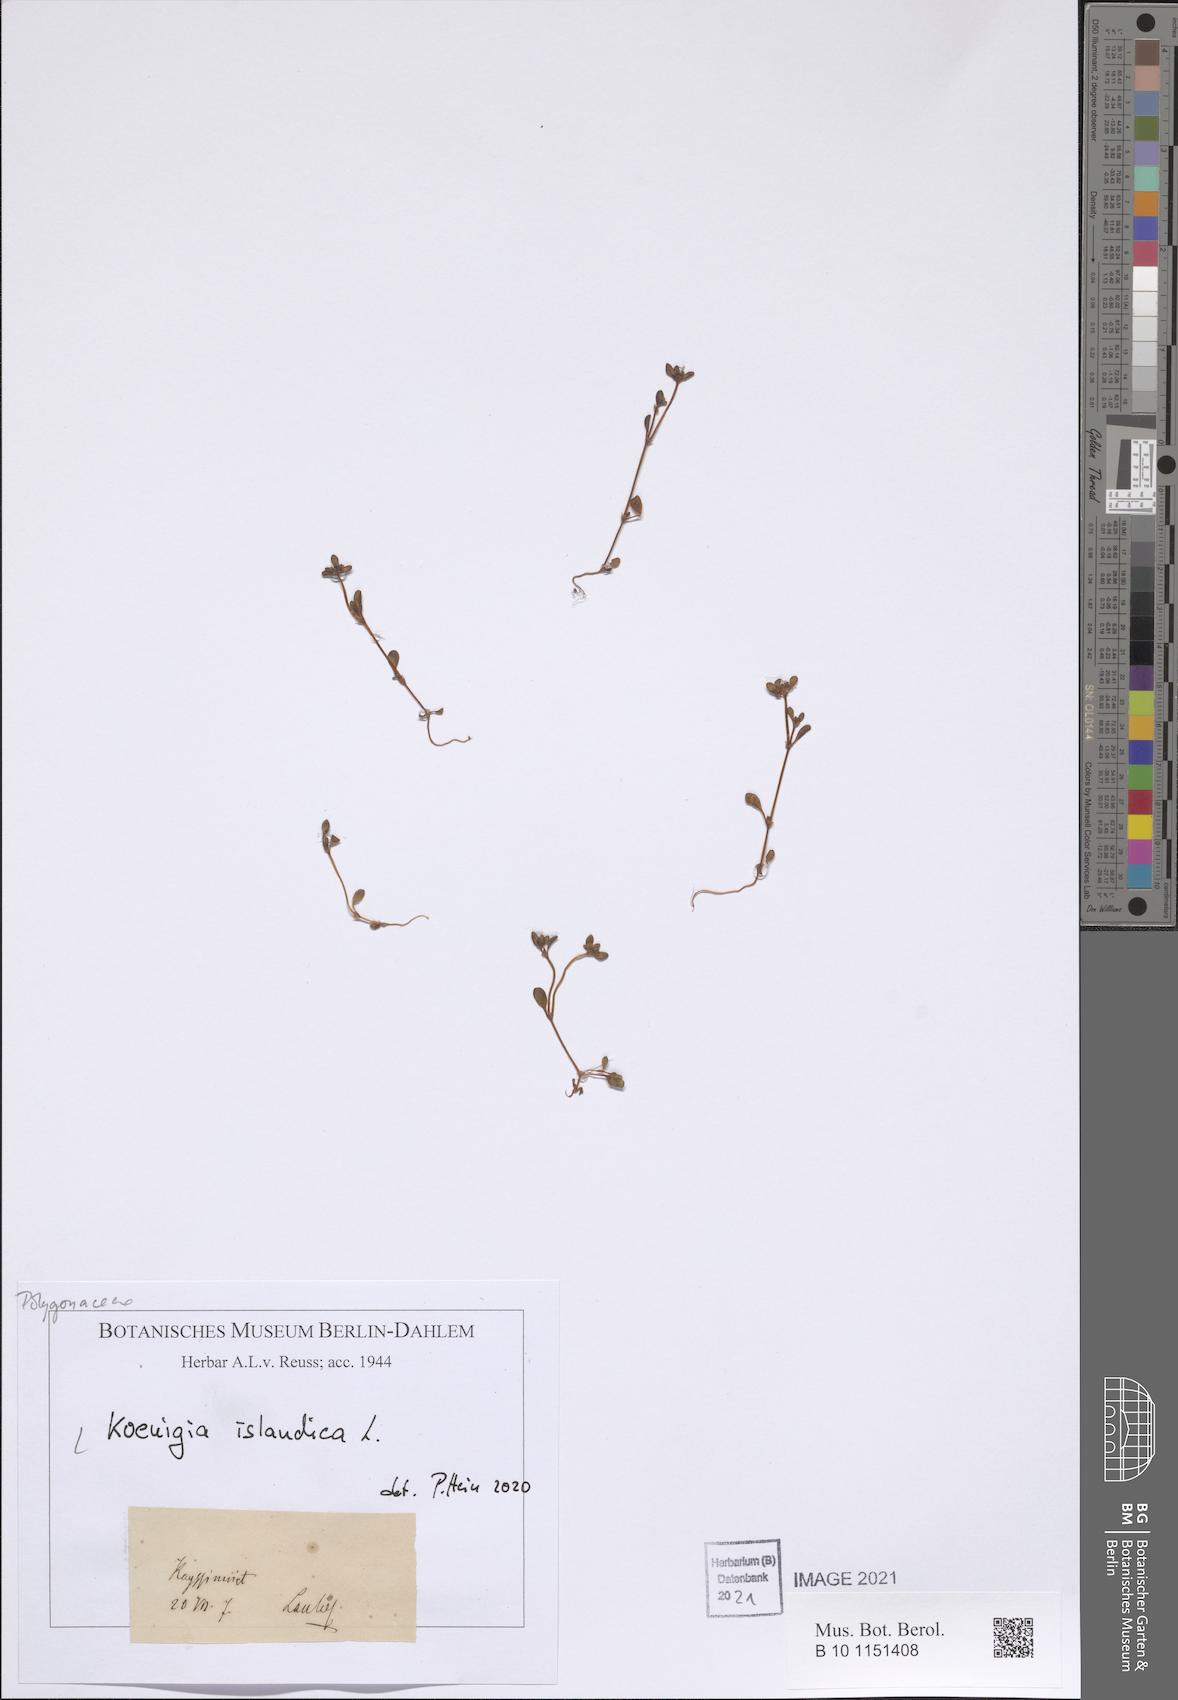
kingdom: Plantae
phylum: Tracheophyta
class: Magnoliopsida
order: Caryophyllales
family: Polygonaceae
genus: Koenigia
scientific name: Koenigia islandica
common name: Iceland-purslane
